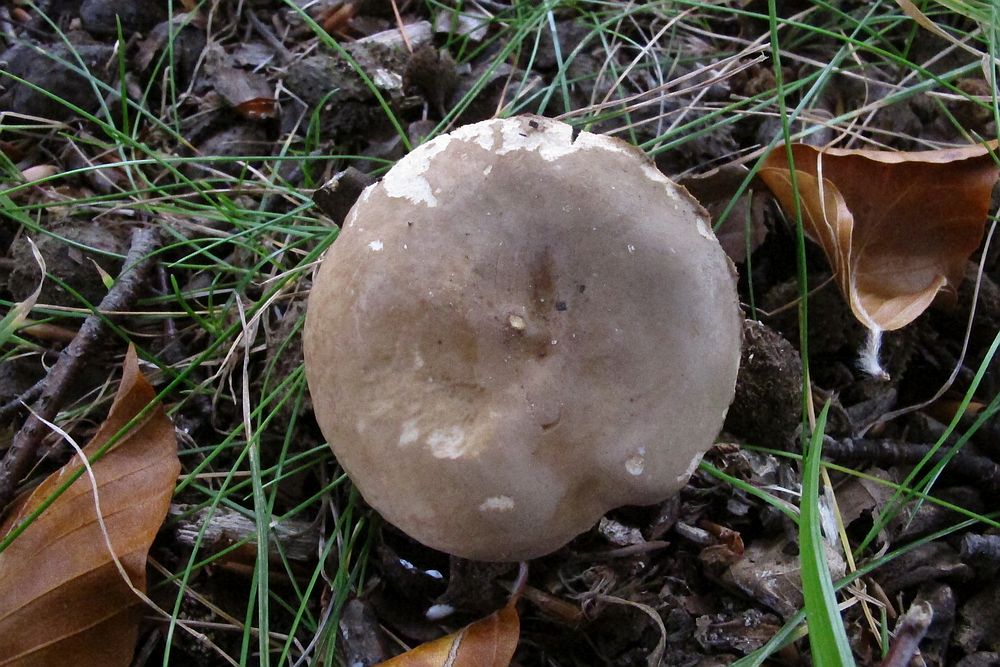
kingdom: Fungi
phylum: Basidiomycota
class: Agaricomycetes
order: Russulales
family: Russulaceae
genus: Lactarius
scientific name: Lactarius azonites
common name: røggrå mælkehat
